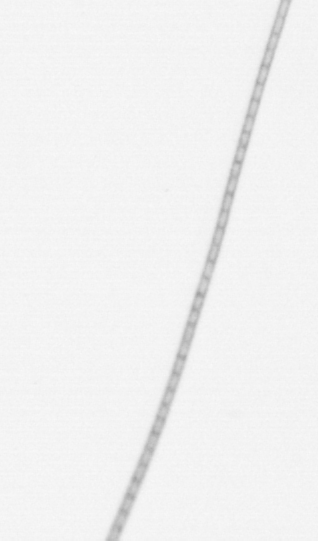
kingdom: Chromista
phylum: Ochrophyta
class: Bacillariophyceae
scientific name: Bacillariophyceae
